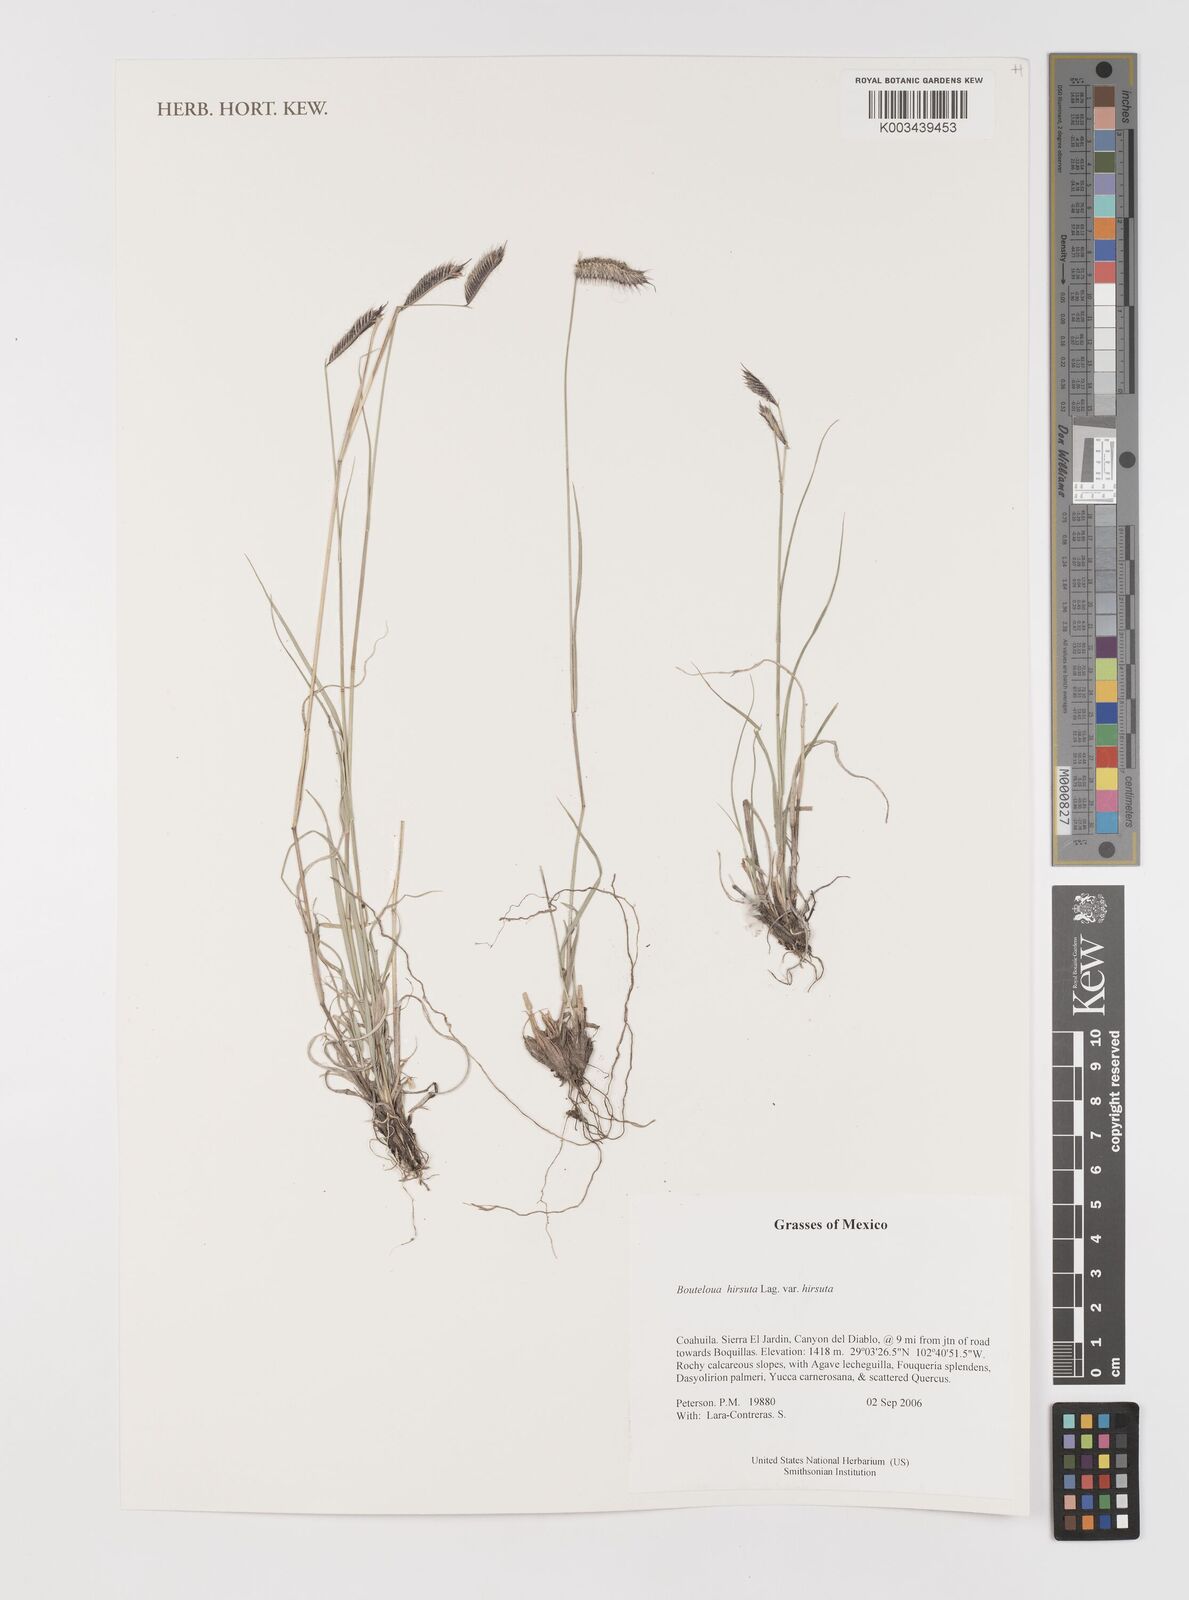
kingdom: Plantae
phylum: Tracheophyta
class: Liliopsida
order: Poales
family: Poaceae
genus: Bouteloua
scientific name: Bouteloua hirsuta
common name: Hairy grama
